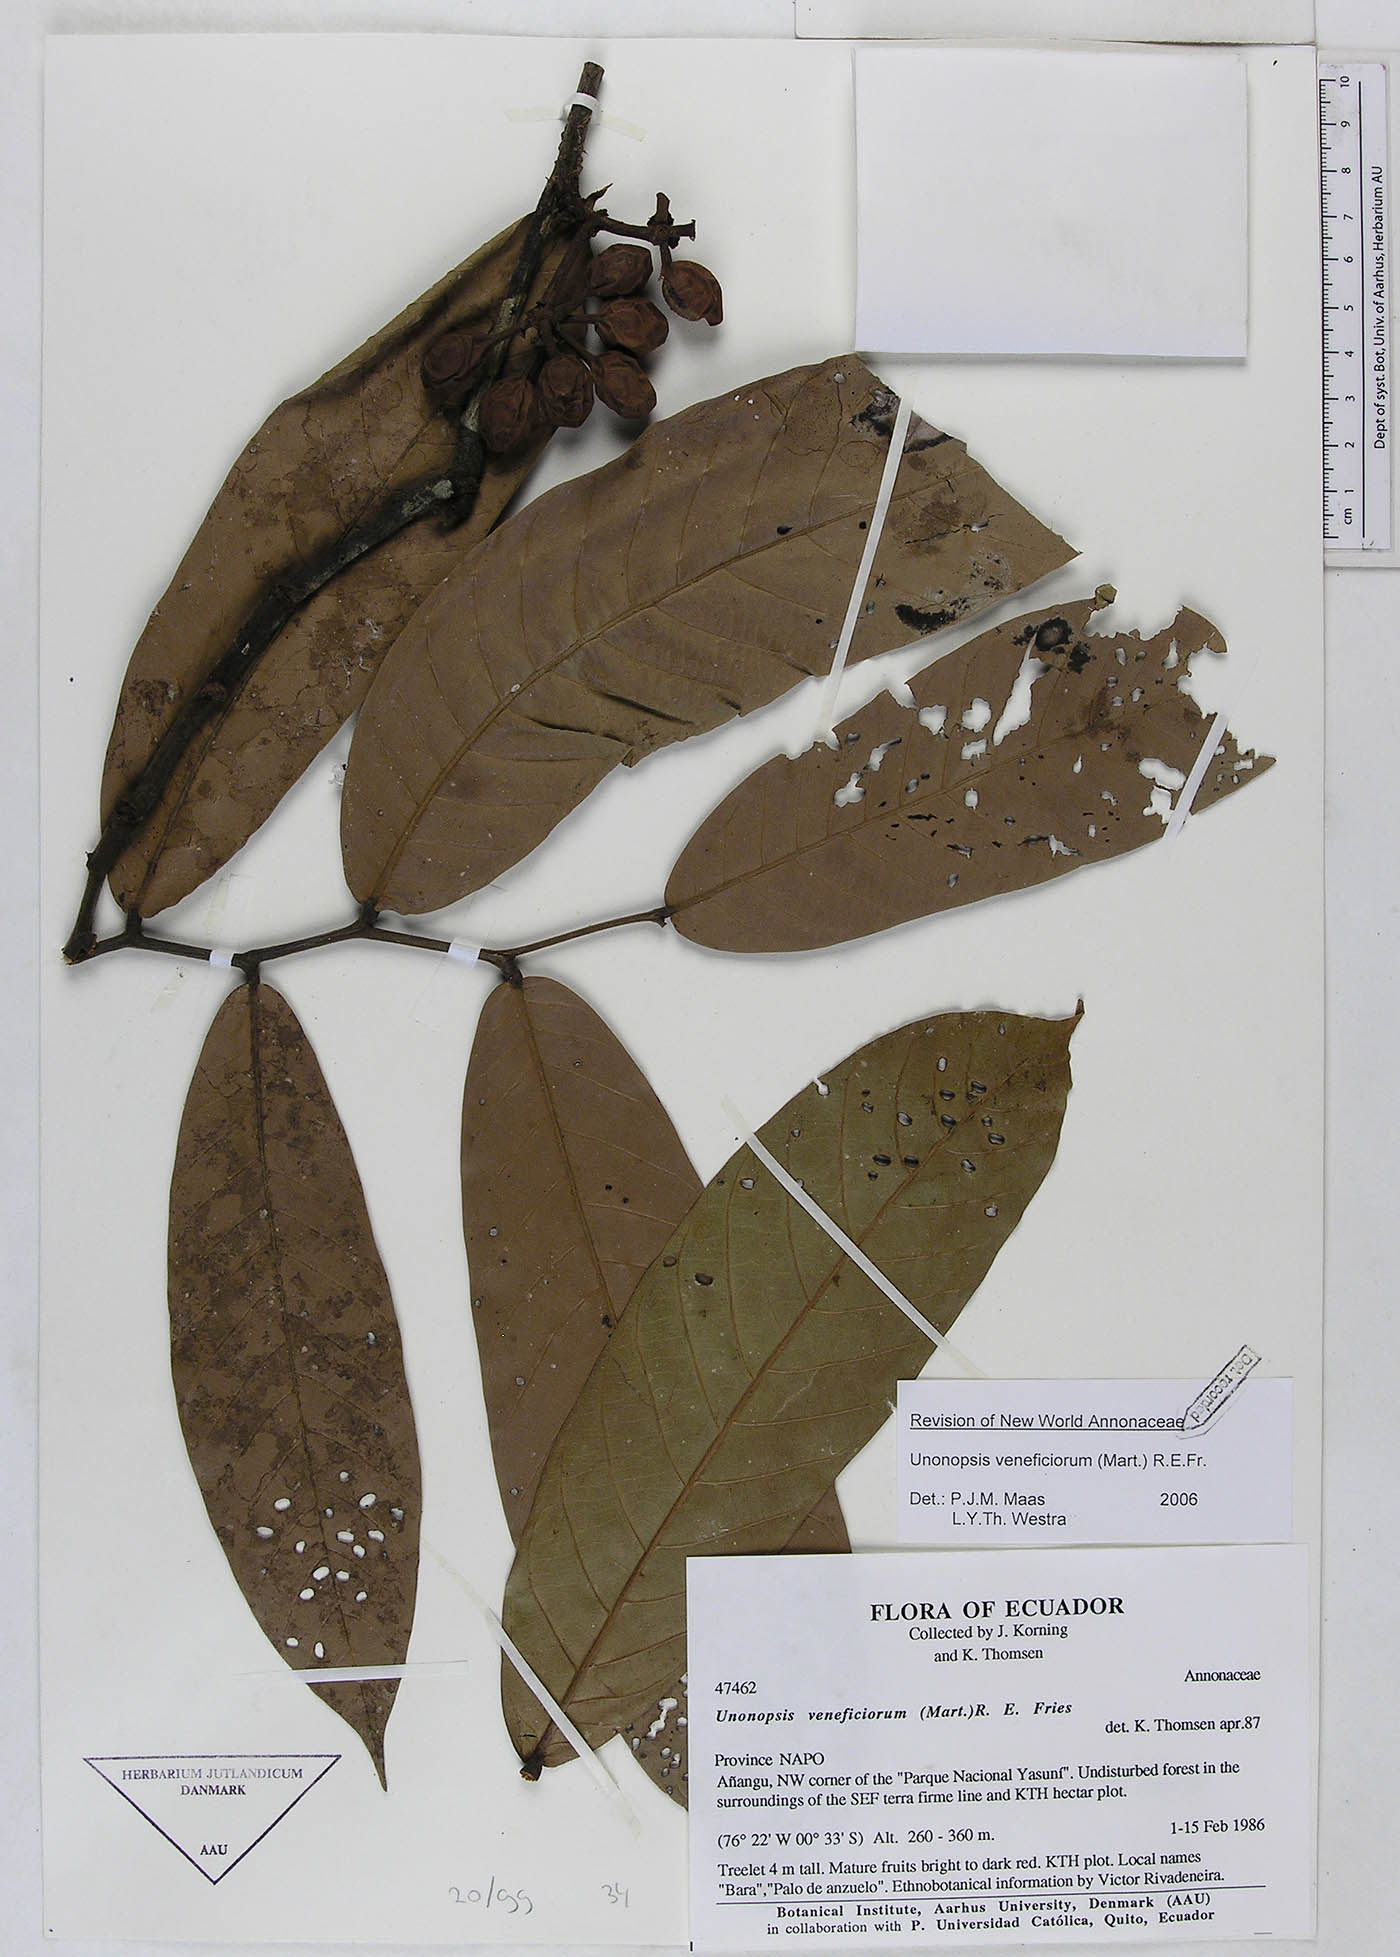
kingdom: Plantae
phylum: Tracheophyta
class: Magnoliopsida
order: Magnoliales
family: Annonaceae
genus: Unonopsis
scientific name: Unonopsis veneficiorum
